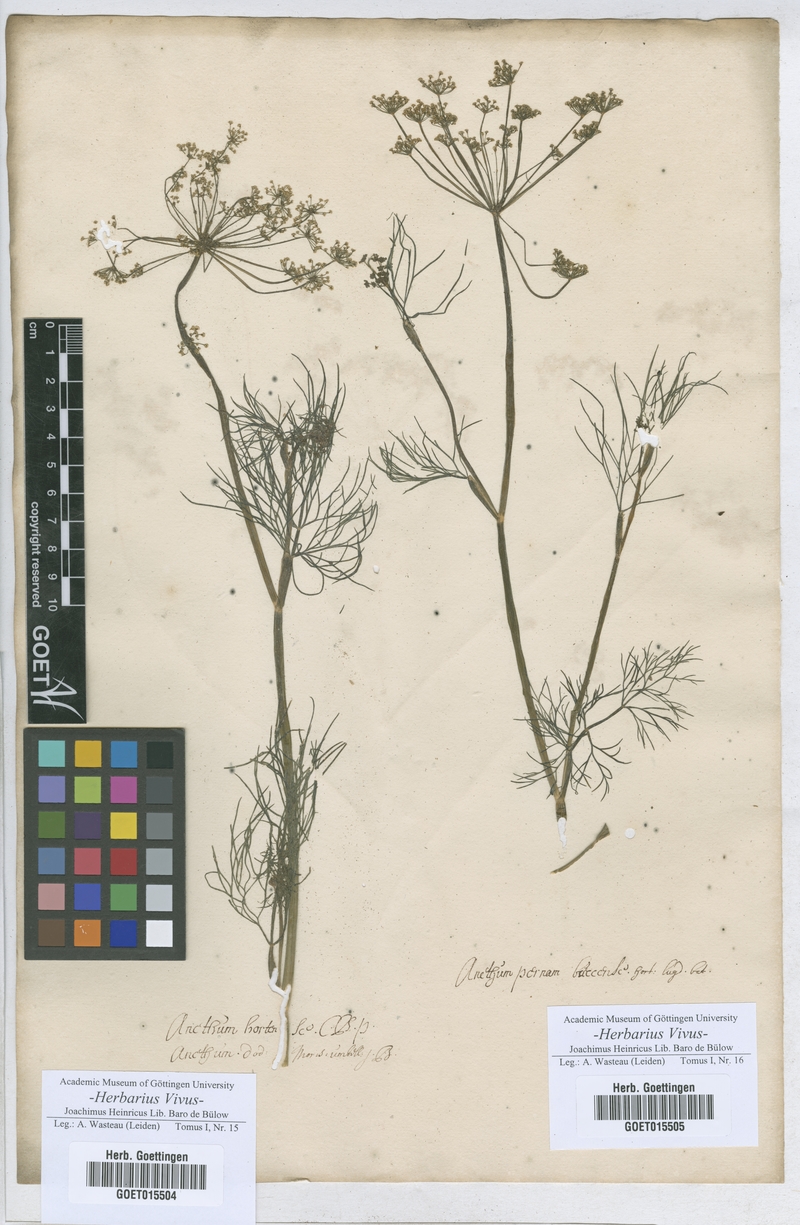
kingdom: Plantae
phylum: Tracheophyta
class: Magnoliopsida
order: Apiales
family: Apiaceae
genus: Anethum
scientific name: Anethum graveolens
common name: Dill
